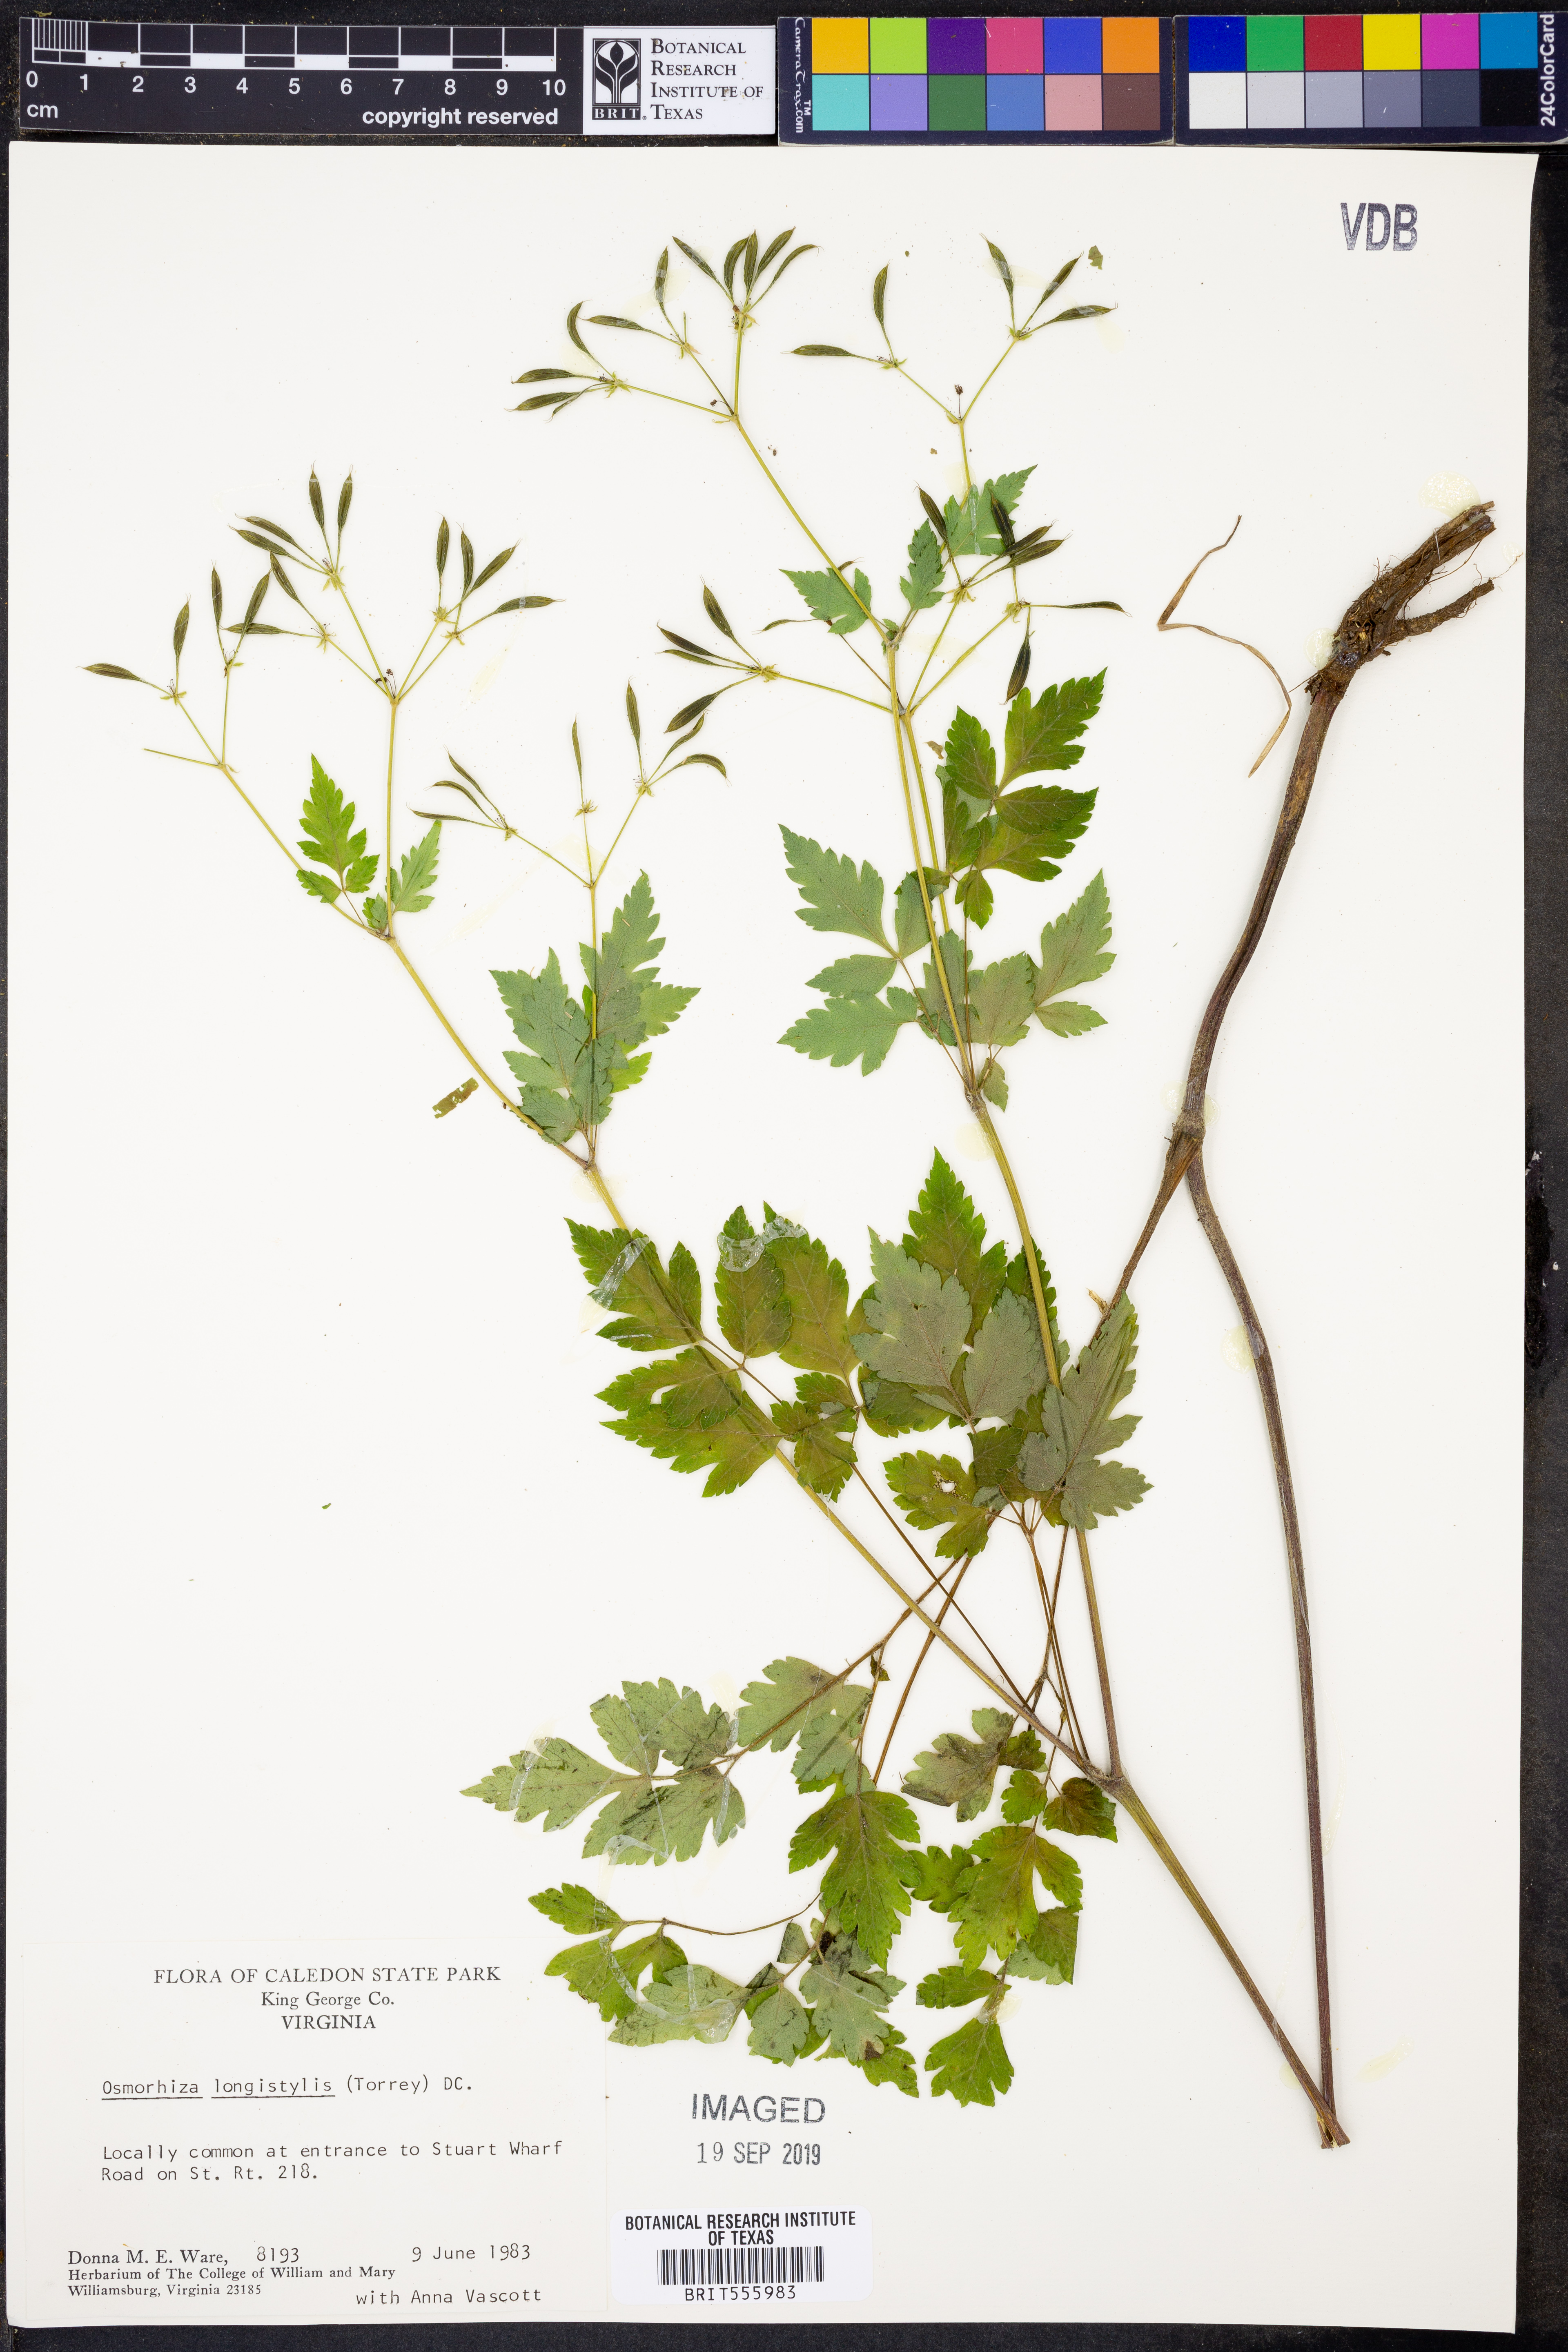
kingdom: Plantae
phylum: Tracheophyta
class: Magnoliopsida
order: Apiales
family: Apiaceae
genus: Osmorhiza
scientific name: Osmorhiza longistylis
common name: Smooth sweet cicely
